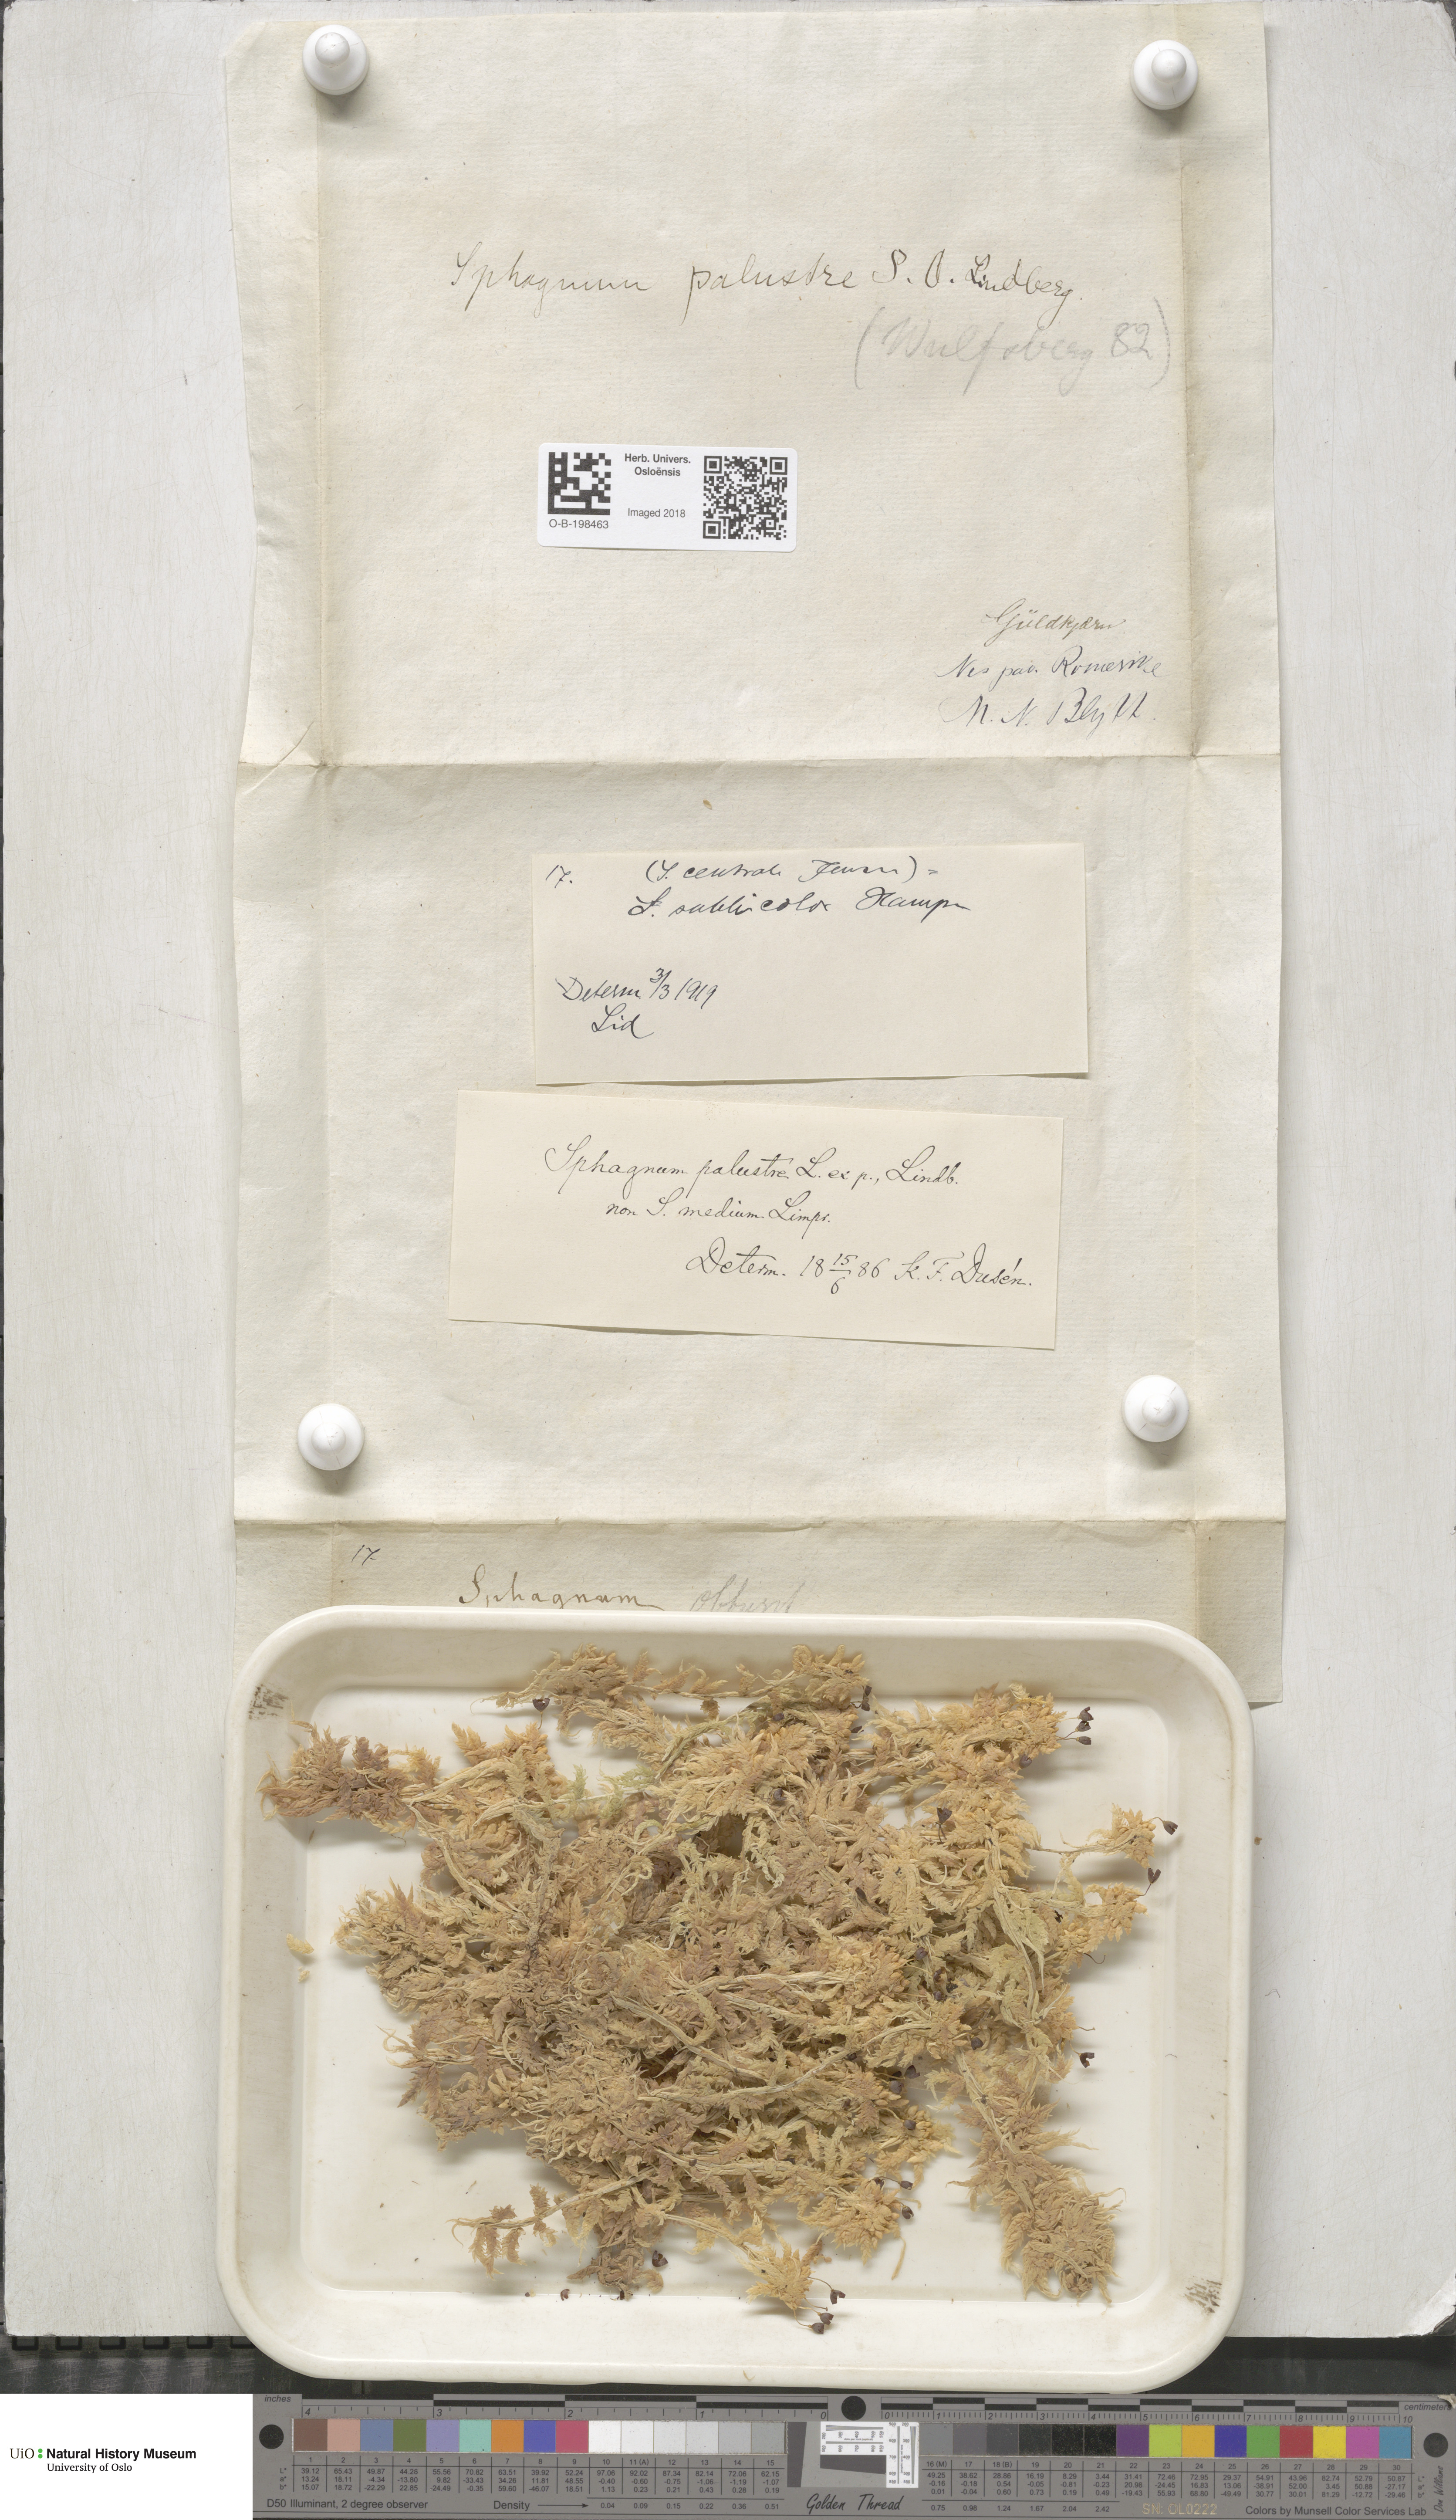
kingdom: Plantae
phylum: Bryophyta
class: Sphagnopsida
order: Sphagnales
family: Sphagnaceae
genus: Sphagnum
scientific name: Sphagnum centrale
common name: Central peat moss
